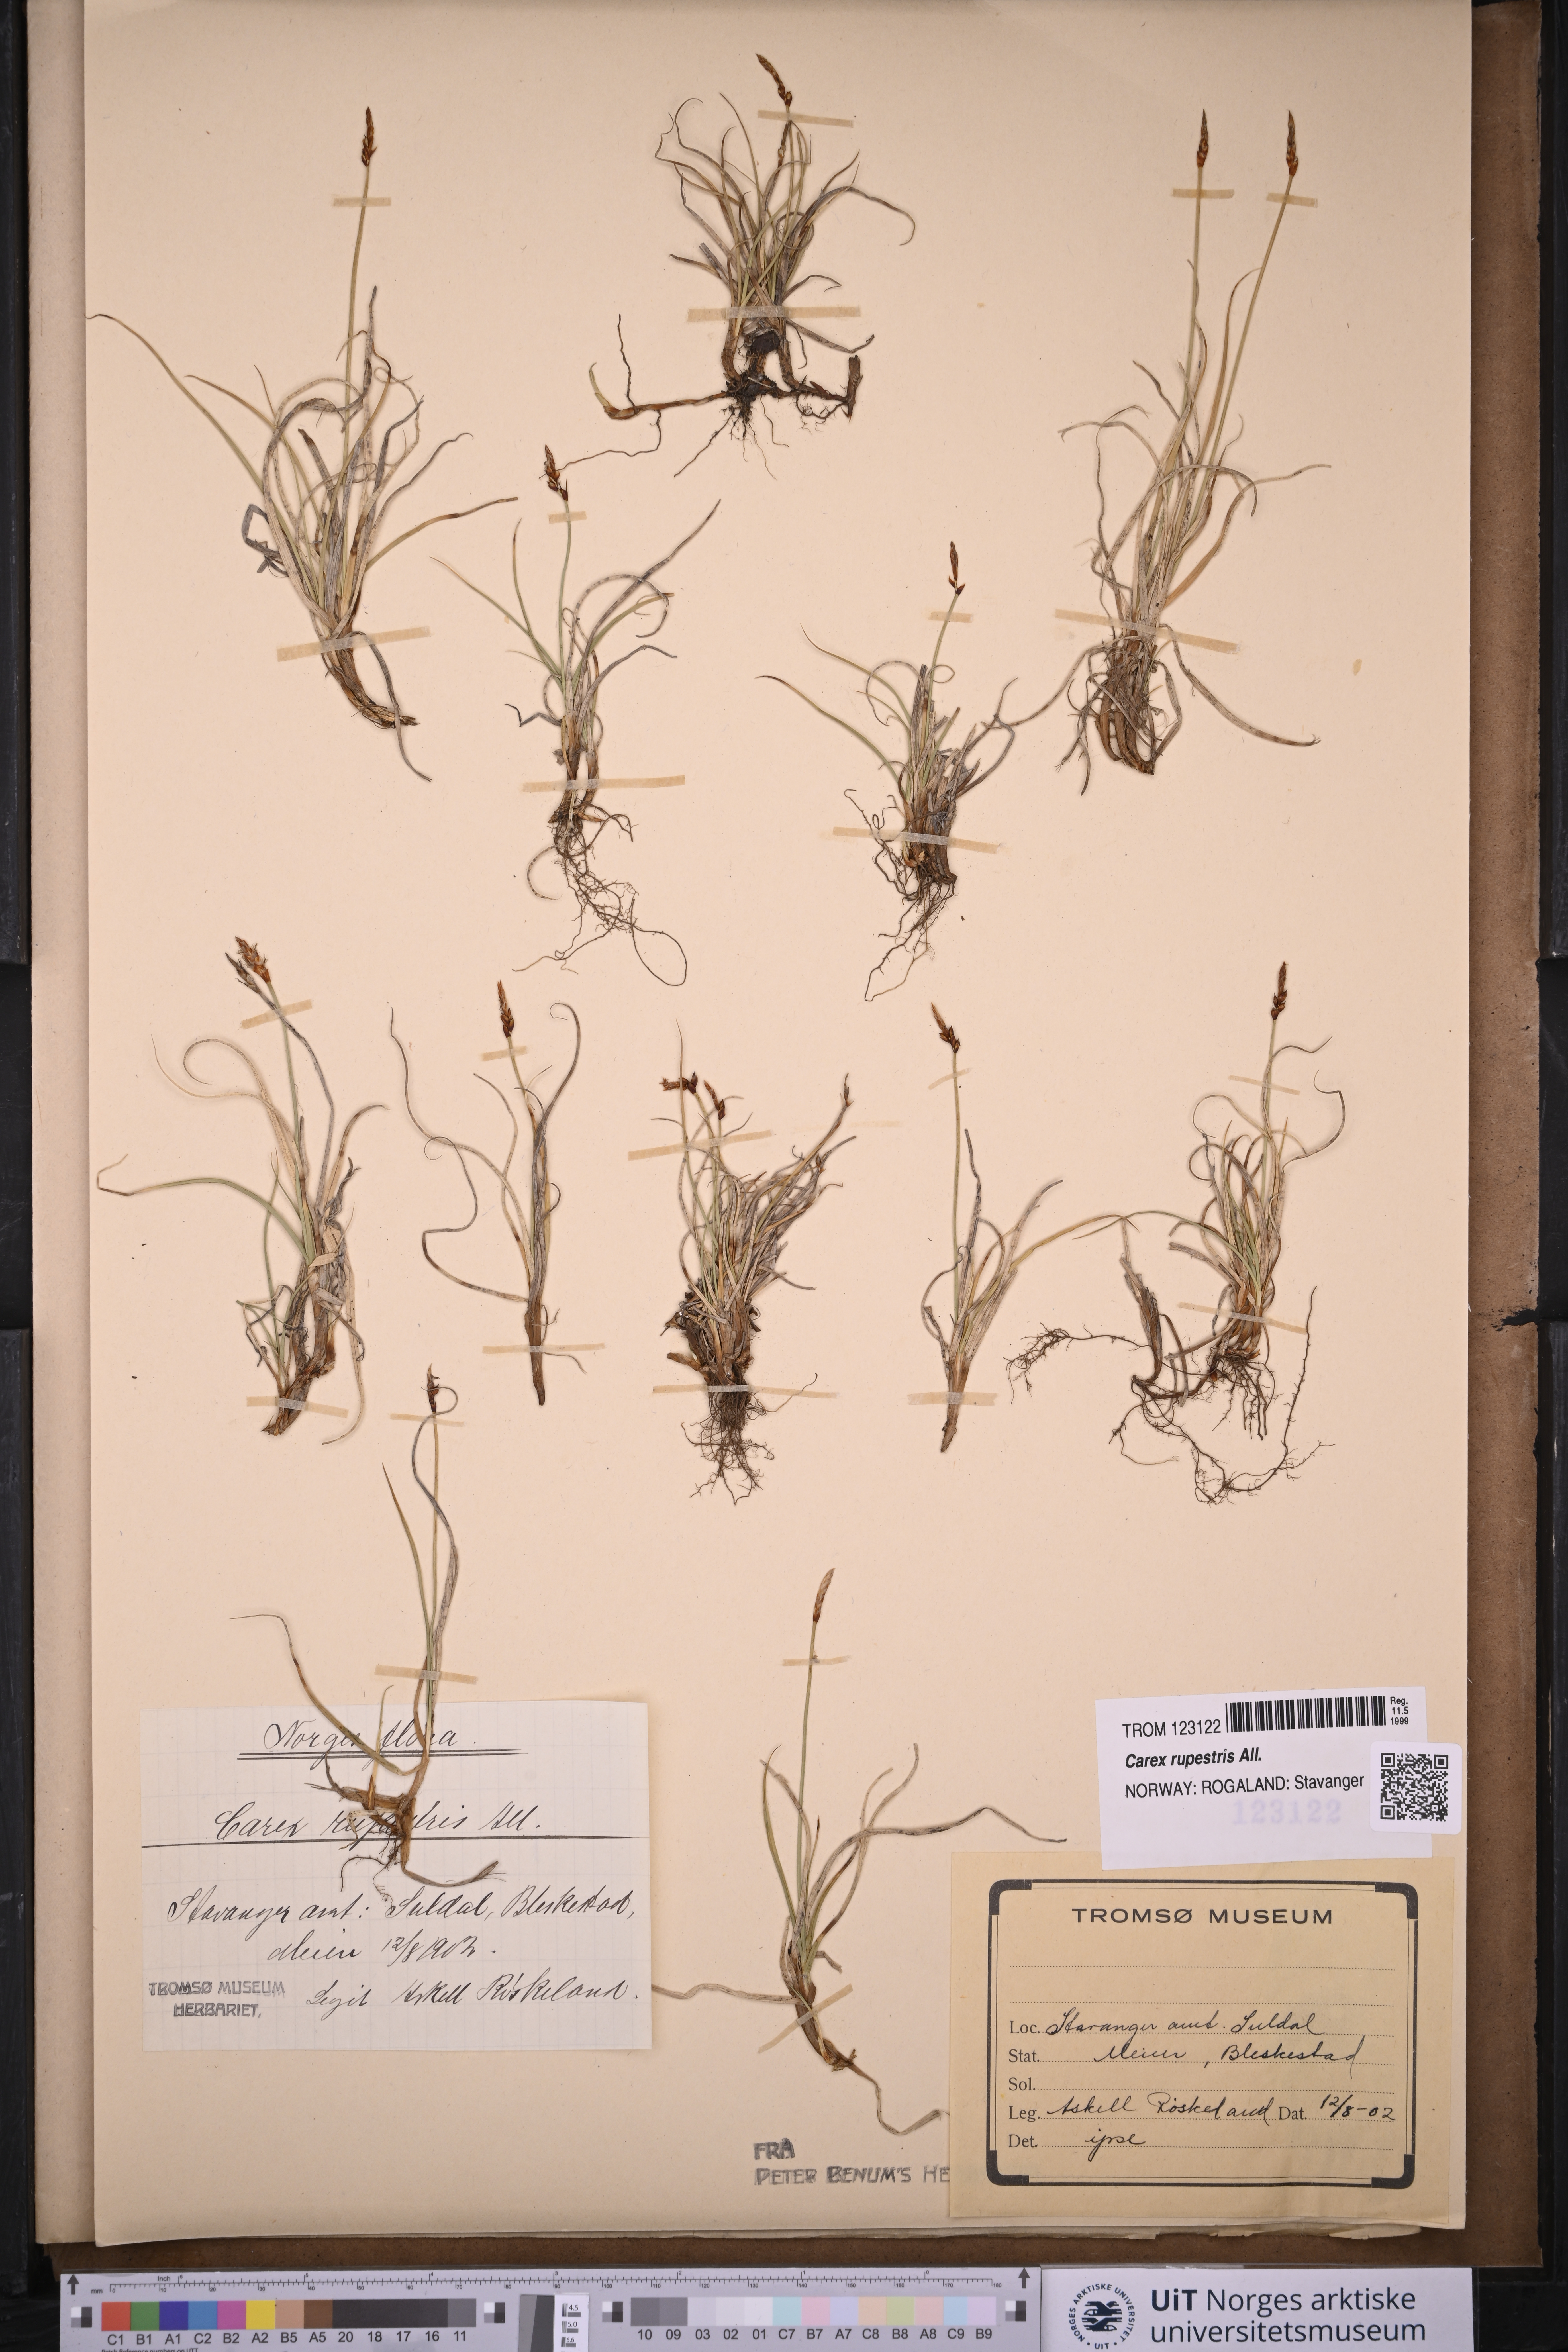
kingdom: Plantae
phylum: Tracheophyta
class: Liliopsida
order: Poales
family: Cyperaceae
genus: Carex
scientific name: Carex rupestris
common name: Rock sedge
